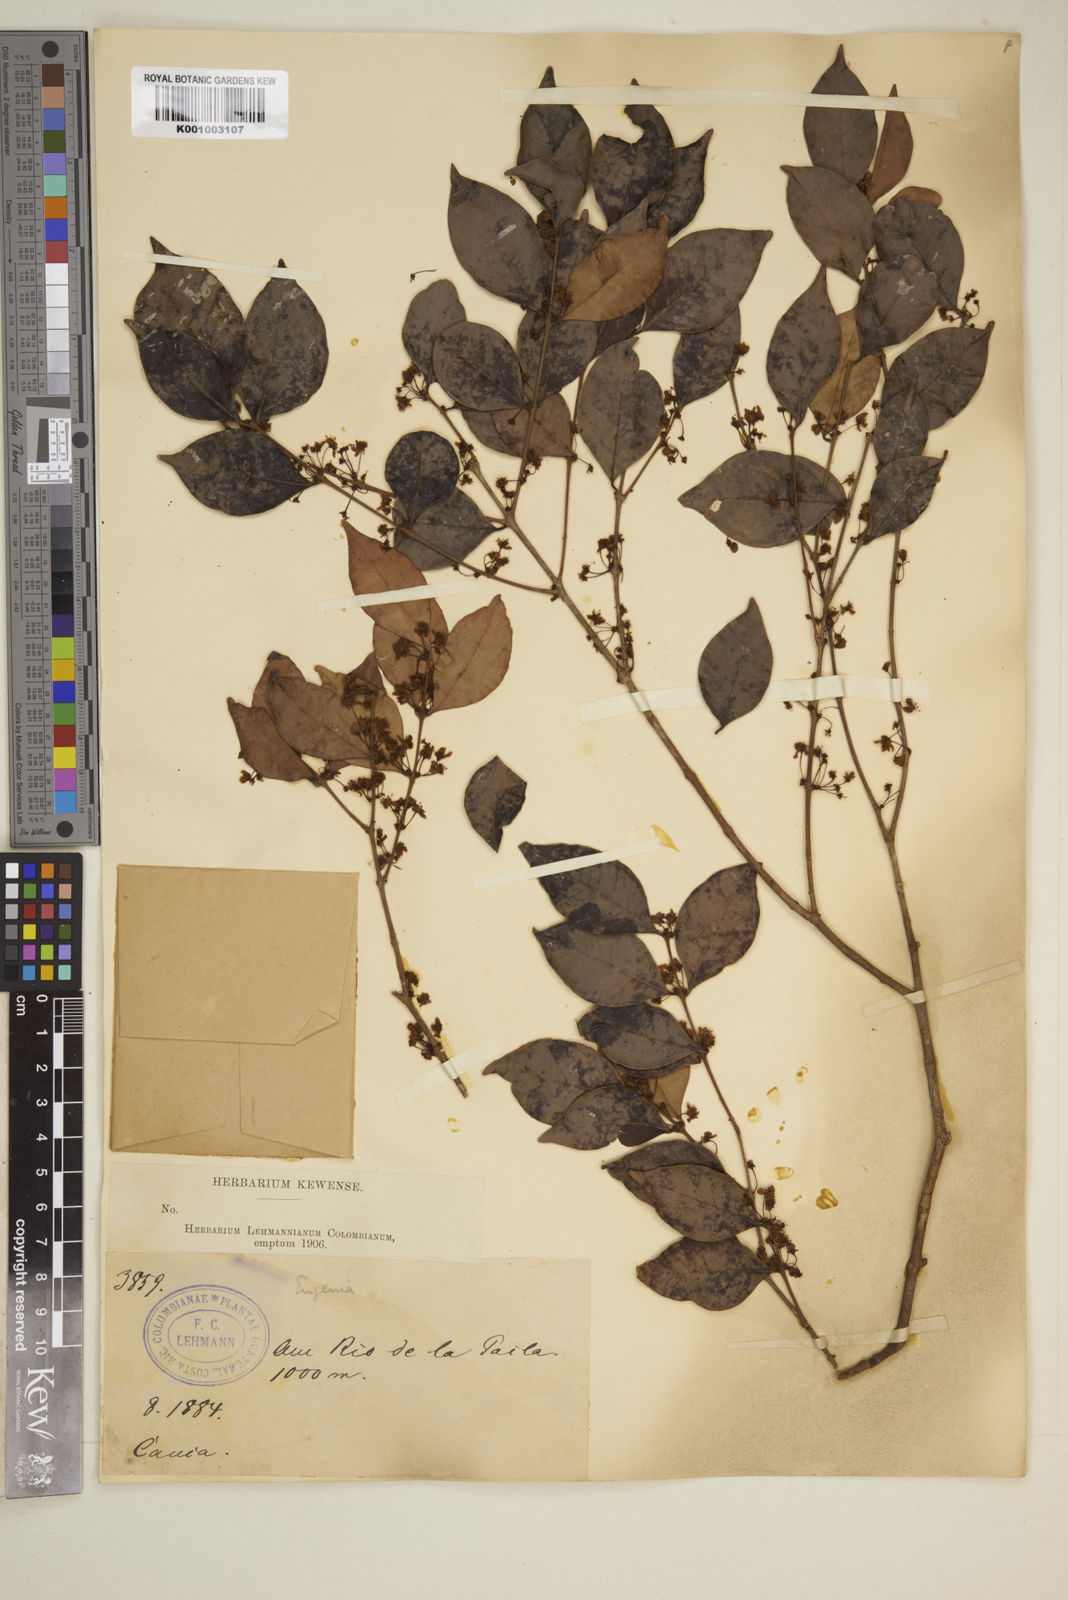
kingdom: Plantae
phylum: Tracheophyta
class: Magnoliopsida
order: Myrtales
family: Myrtaceae
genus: Eugenia
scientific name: Eugenia
